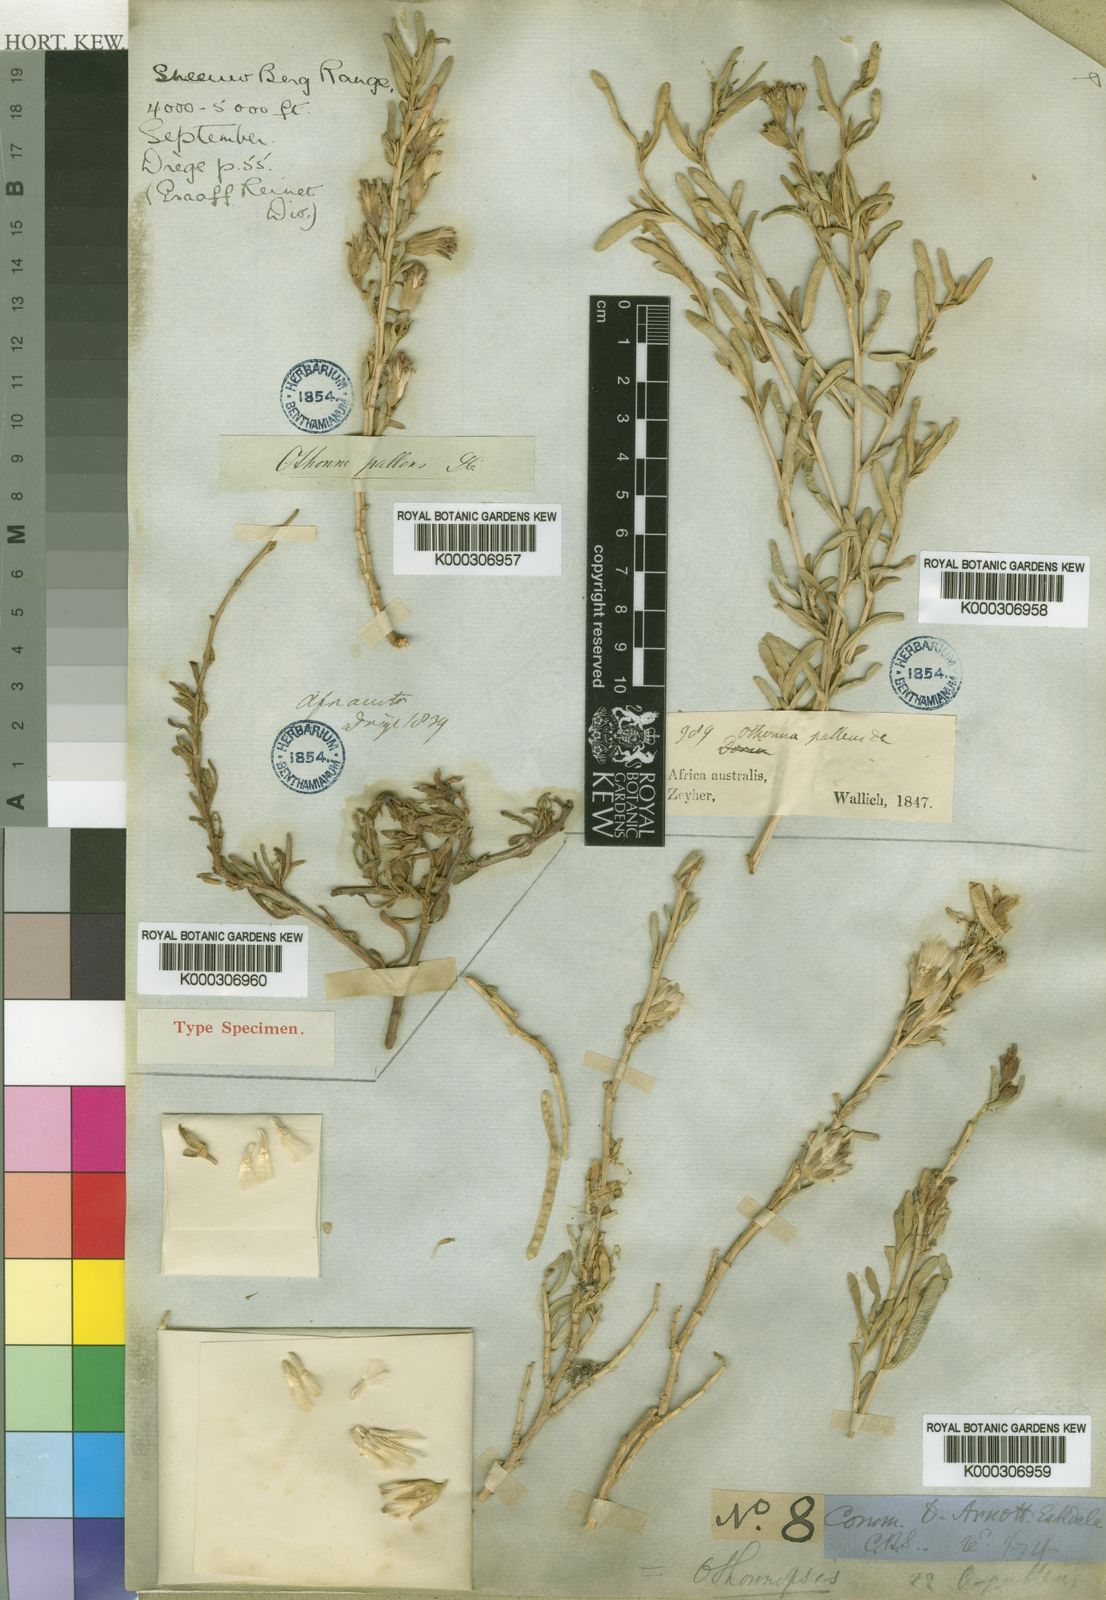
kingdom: Plantae
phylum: Tracheophyta
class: Magnoliopsida
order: Asterales
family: Asteraceae
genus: Hertia
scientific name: Hertia pallens
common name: Springbokbush
